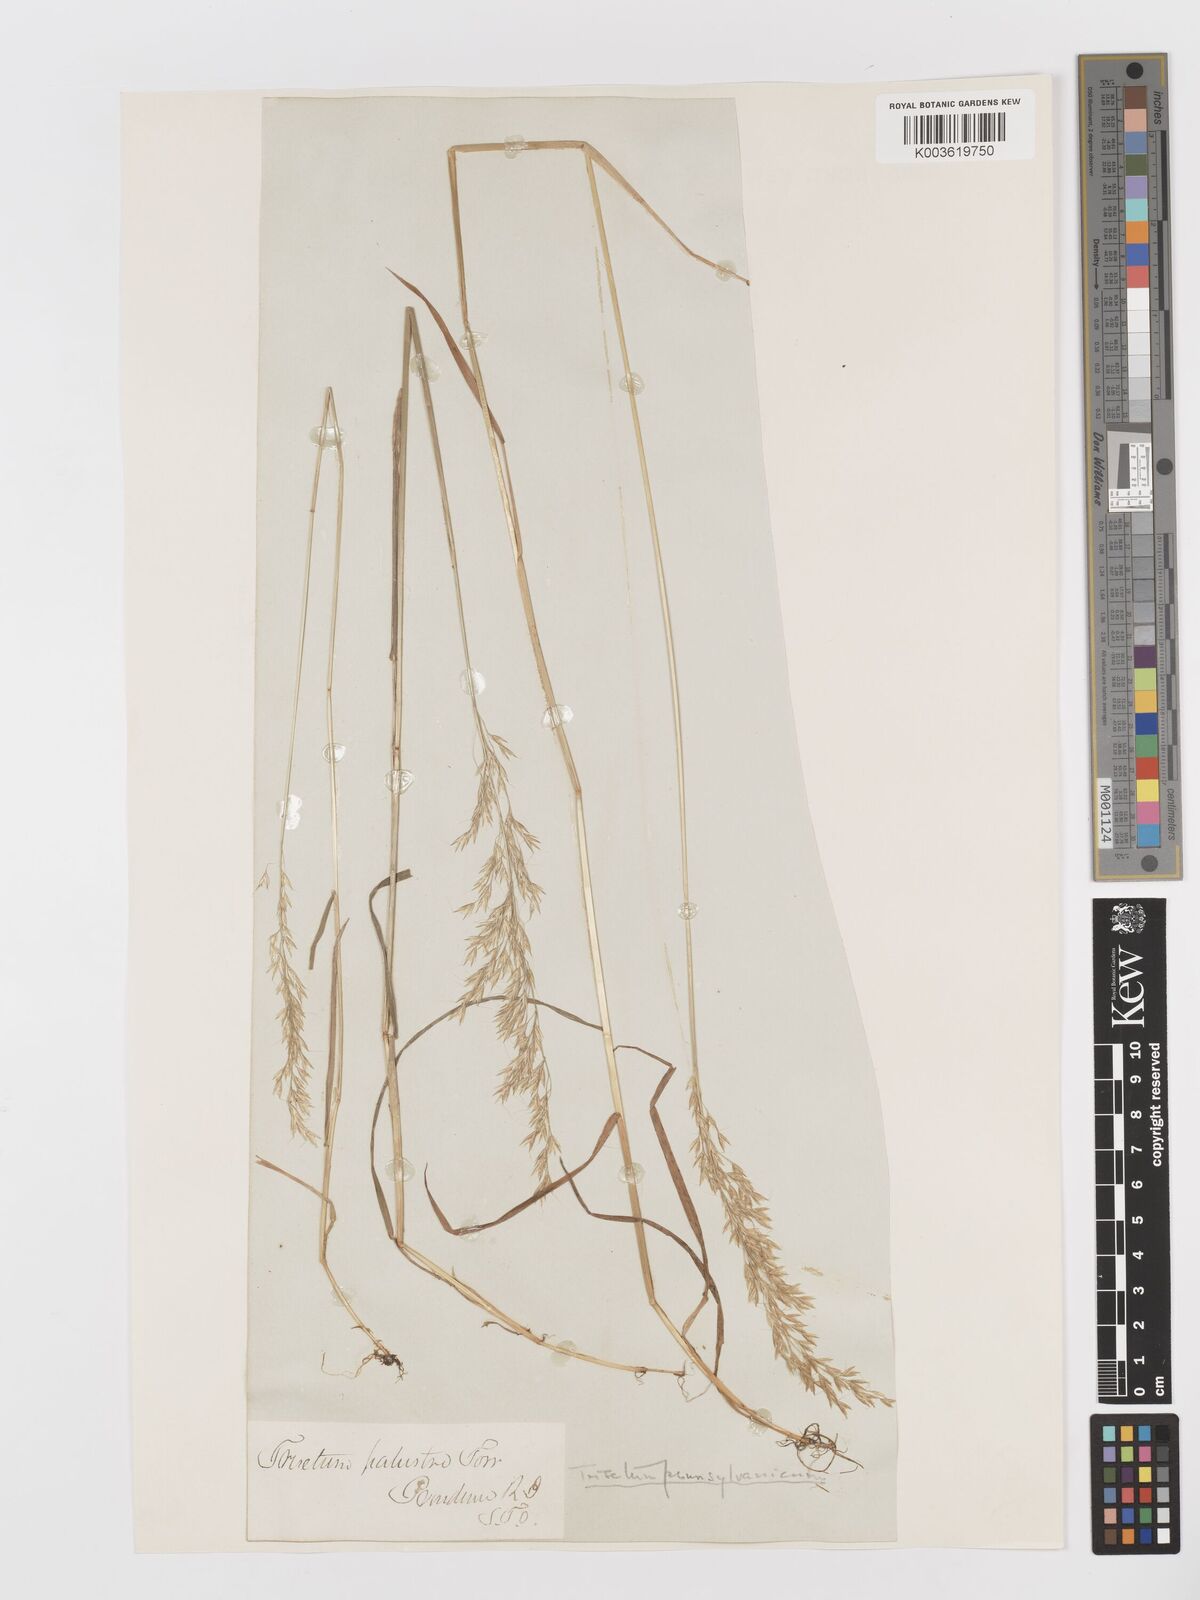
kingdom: Plantae
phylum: Tracheophyta
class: Liliopsida
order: Poales
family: Poaceae
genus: Sphenopholis
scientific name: Sphenopholis pensylvanica
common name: Swamp oats
